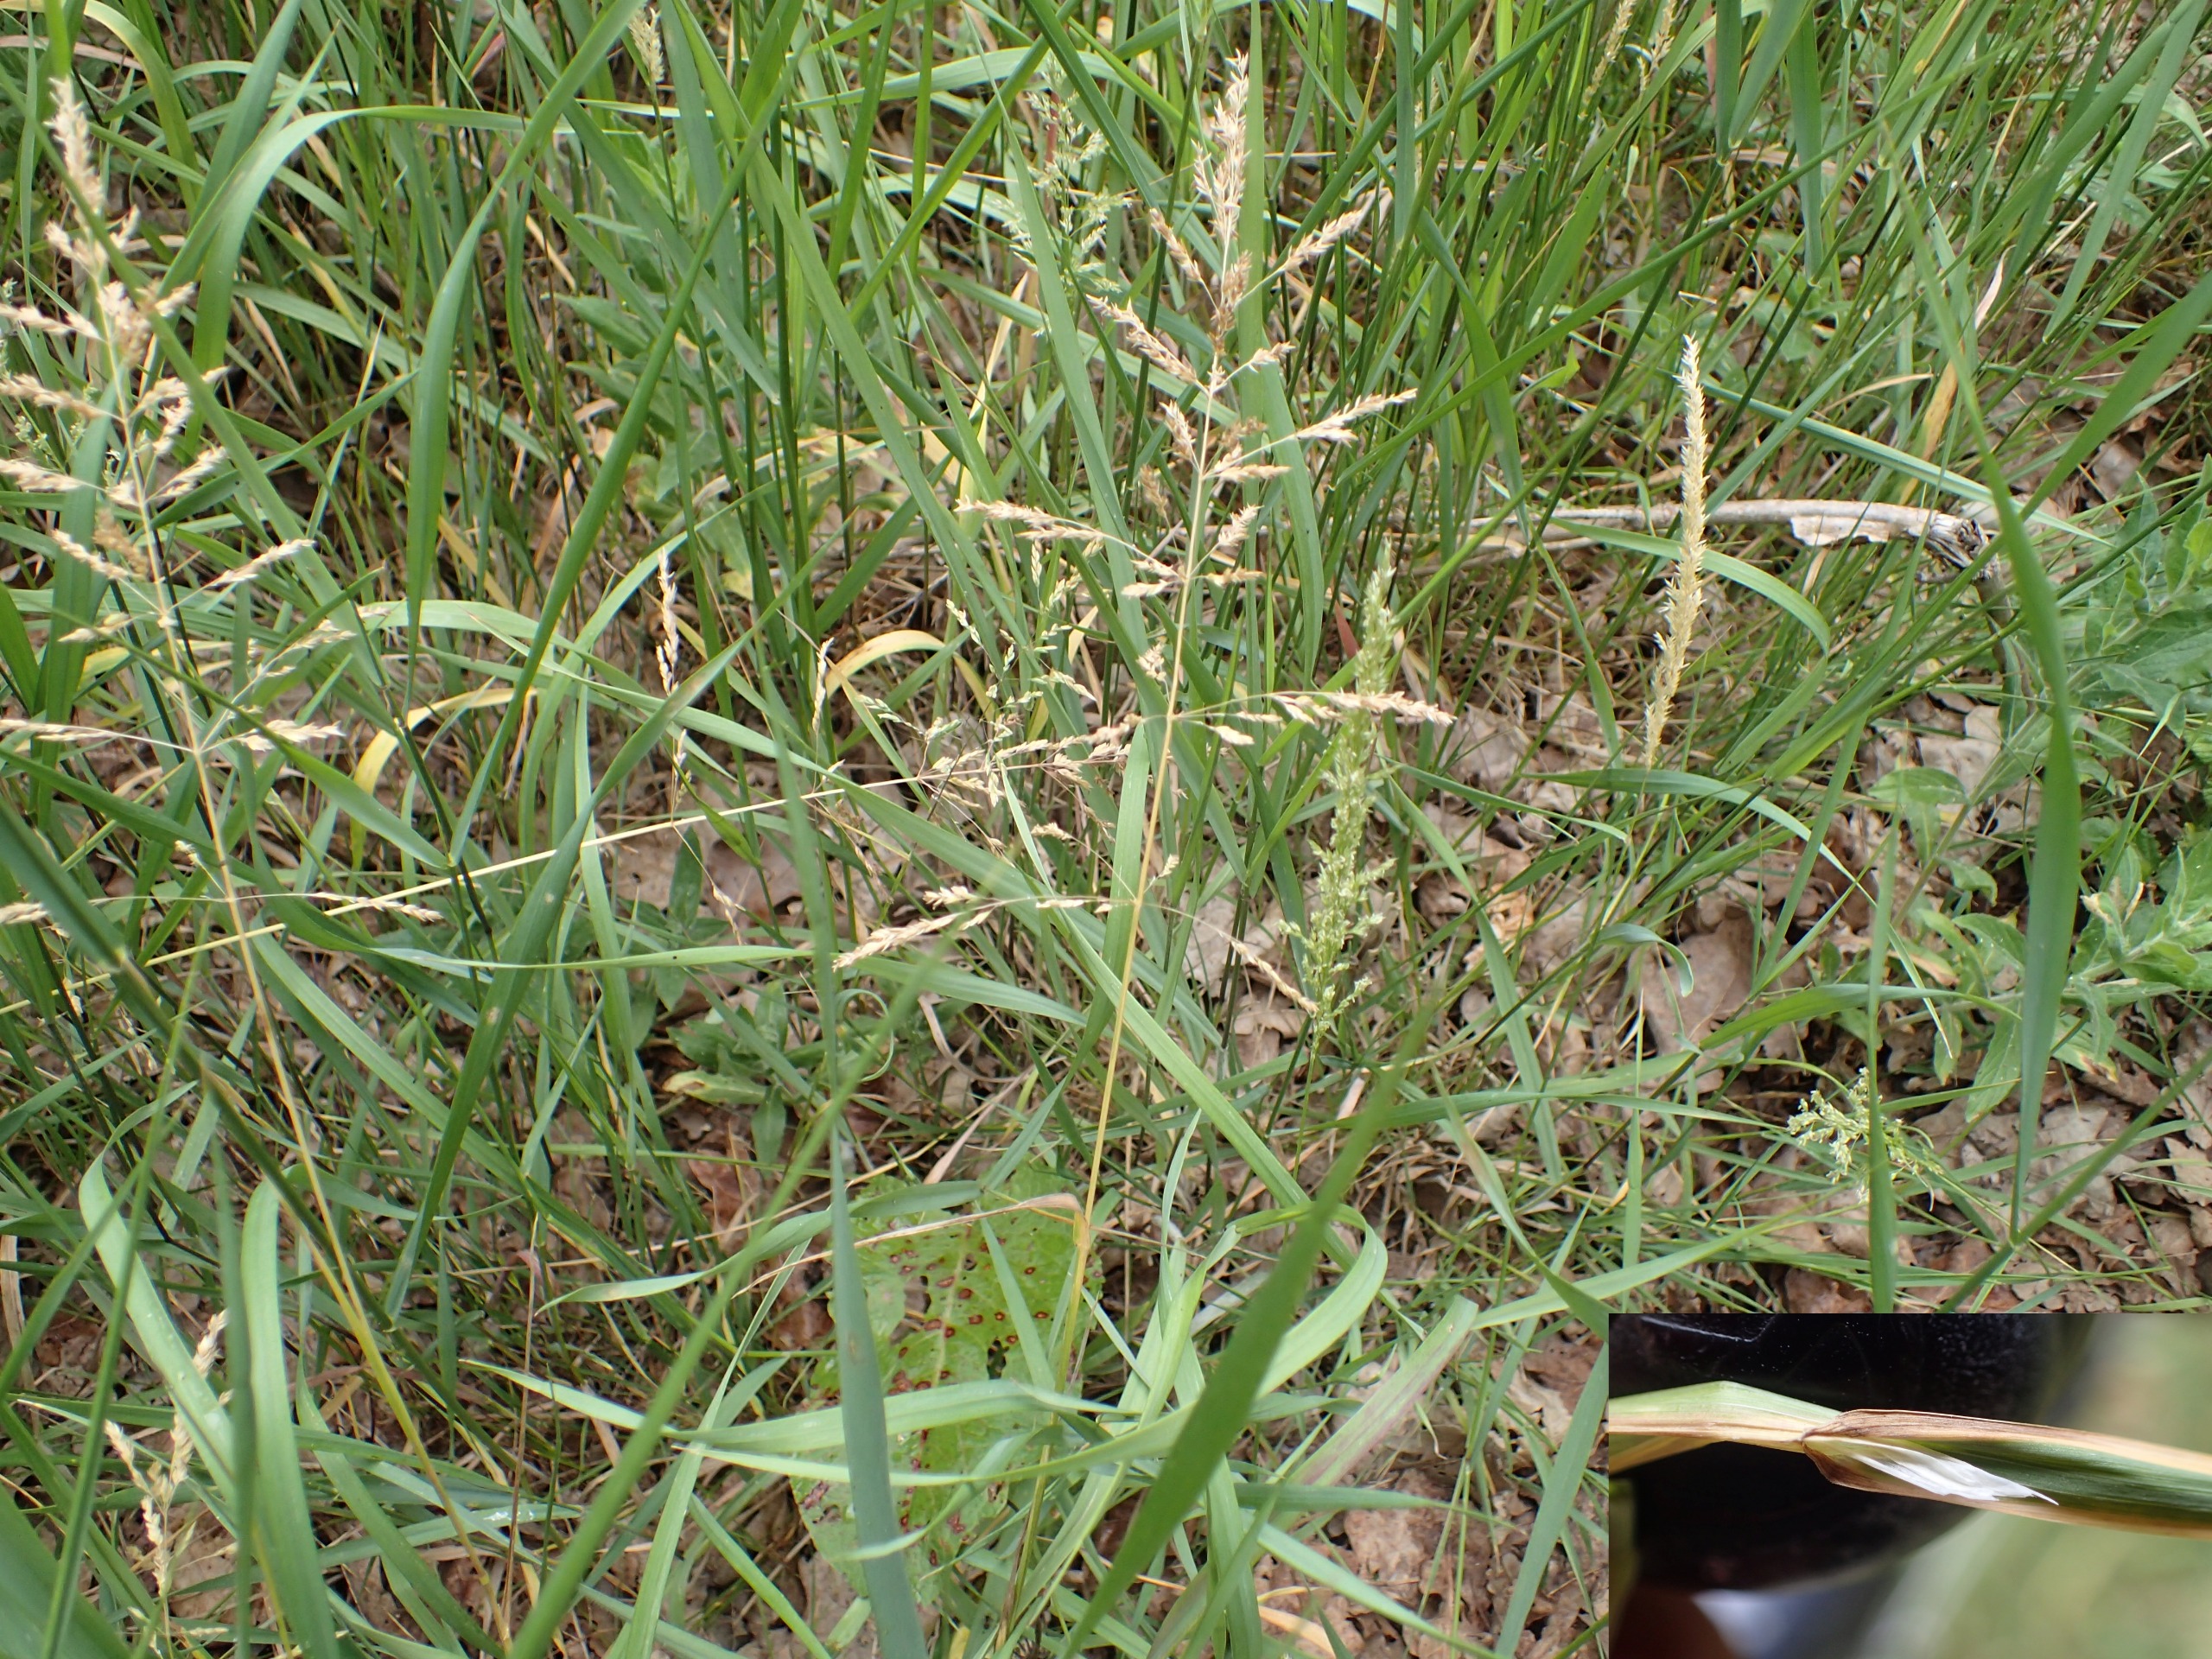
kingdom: Plantae
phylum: Tracheophyta
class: Liliopsida
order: Poales
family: Poaceae
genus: Poa
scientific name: Poa trivialis
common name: Almindelig rapgræs
